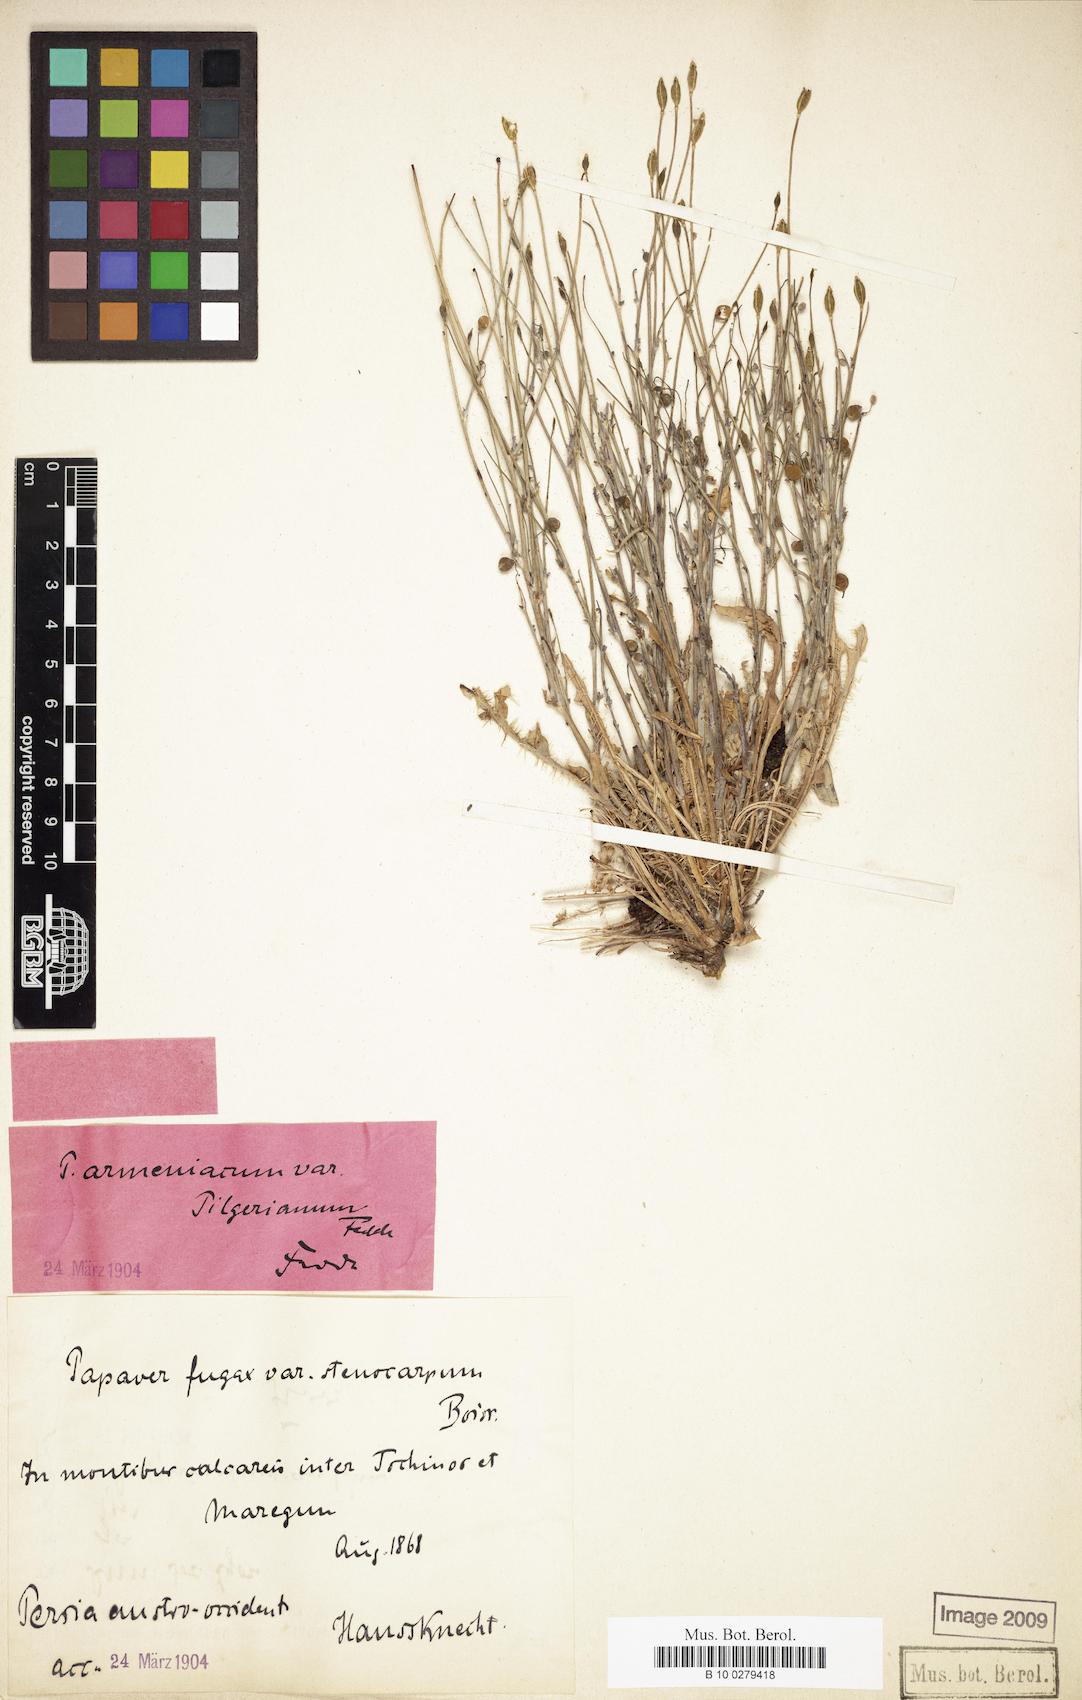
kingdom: Plantae
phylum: Tracheophyta
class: Magnoliopsida
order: Ranunculales
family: Papaveraceae
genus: Papaver
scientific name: Papaver armeniacum
